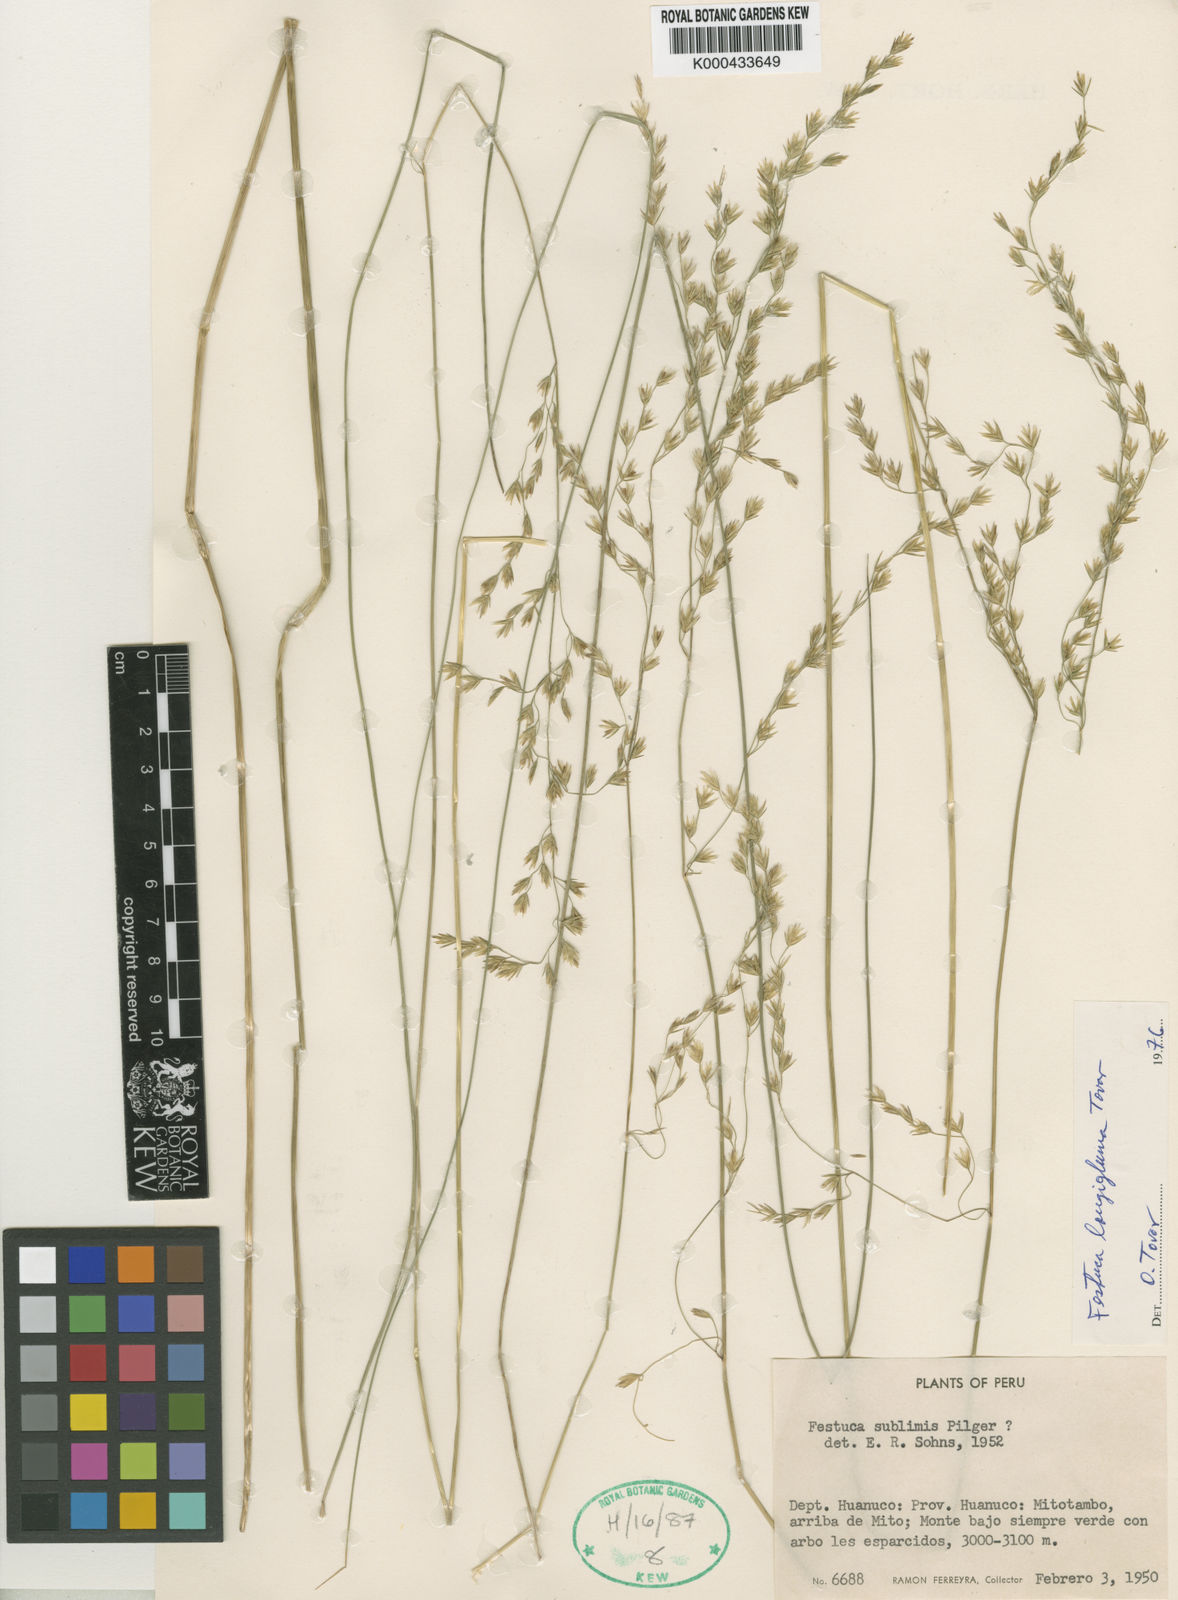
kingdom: Plantae
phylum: Tracheophyta
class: Liliopsida
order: Poales
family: Poaceae
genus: Festuca
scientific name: Festuca longigluma
